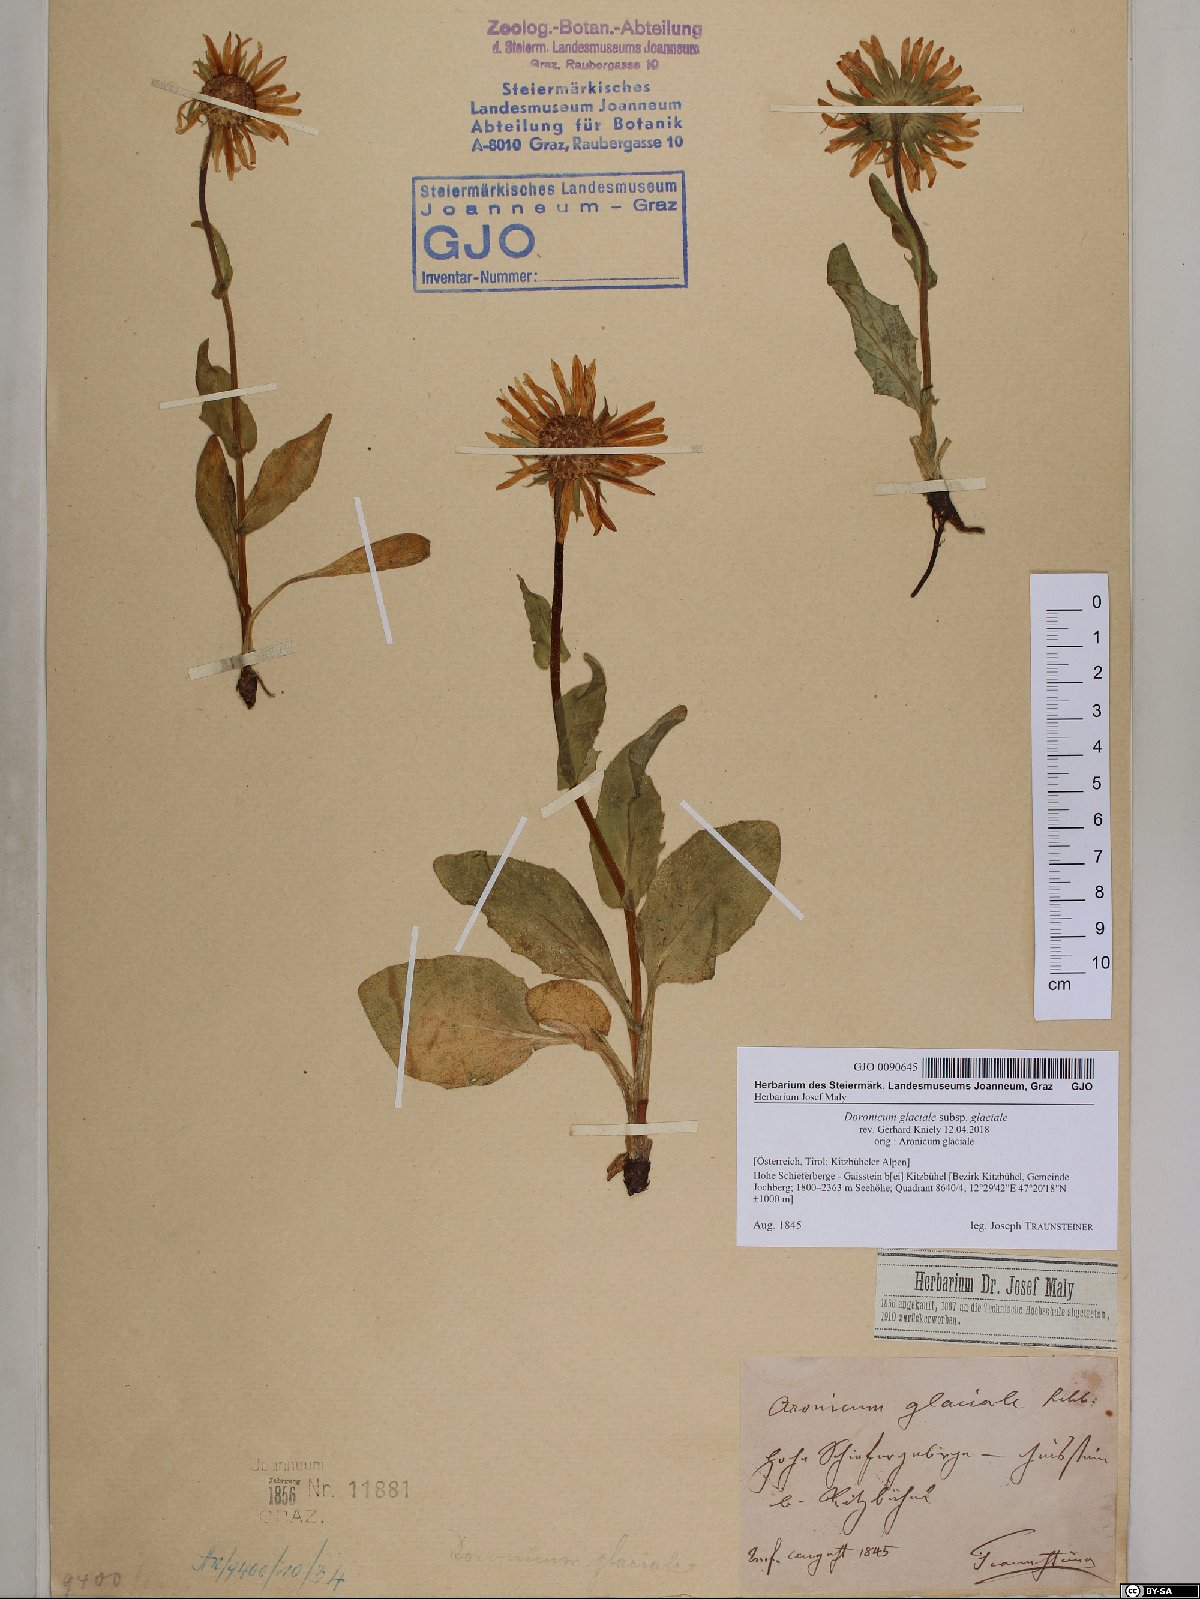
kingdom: Plantae
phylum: Tracheophyta
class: Magnoliopsida
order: Asterales
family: Asteraceae
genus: Doronicum
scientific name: Doronicum glaciale
